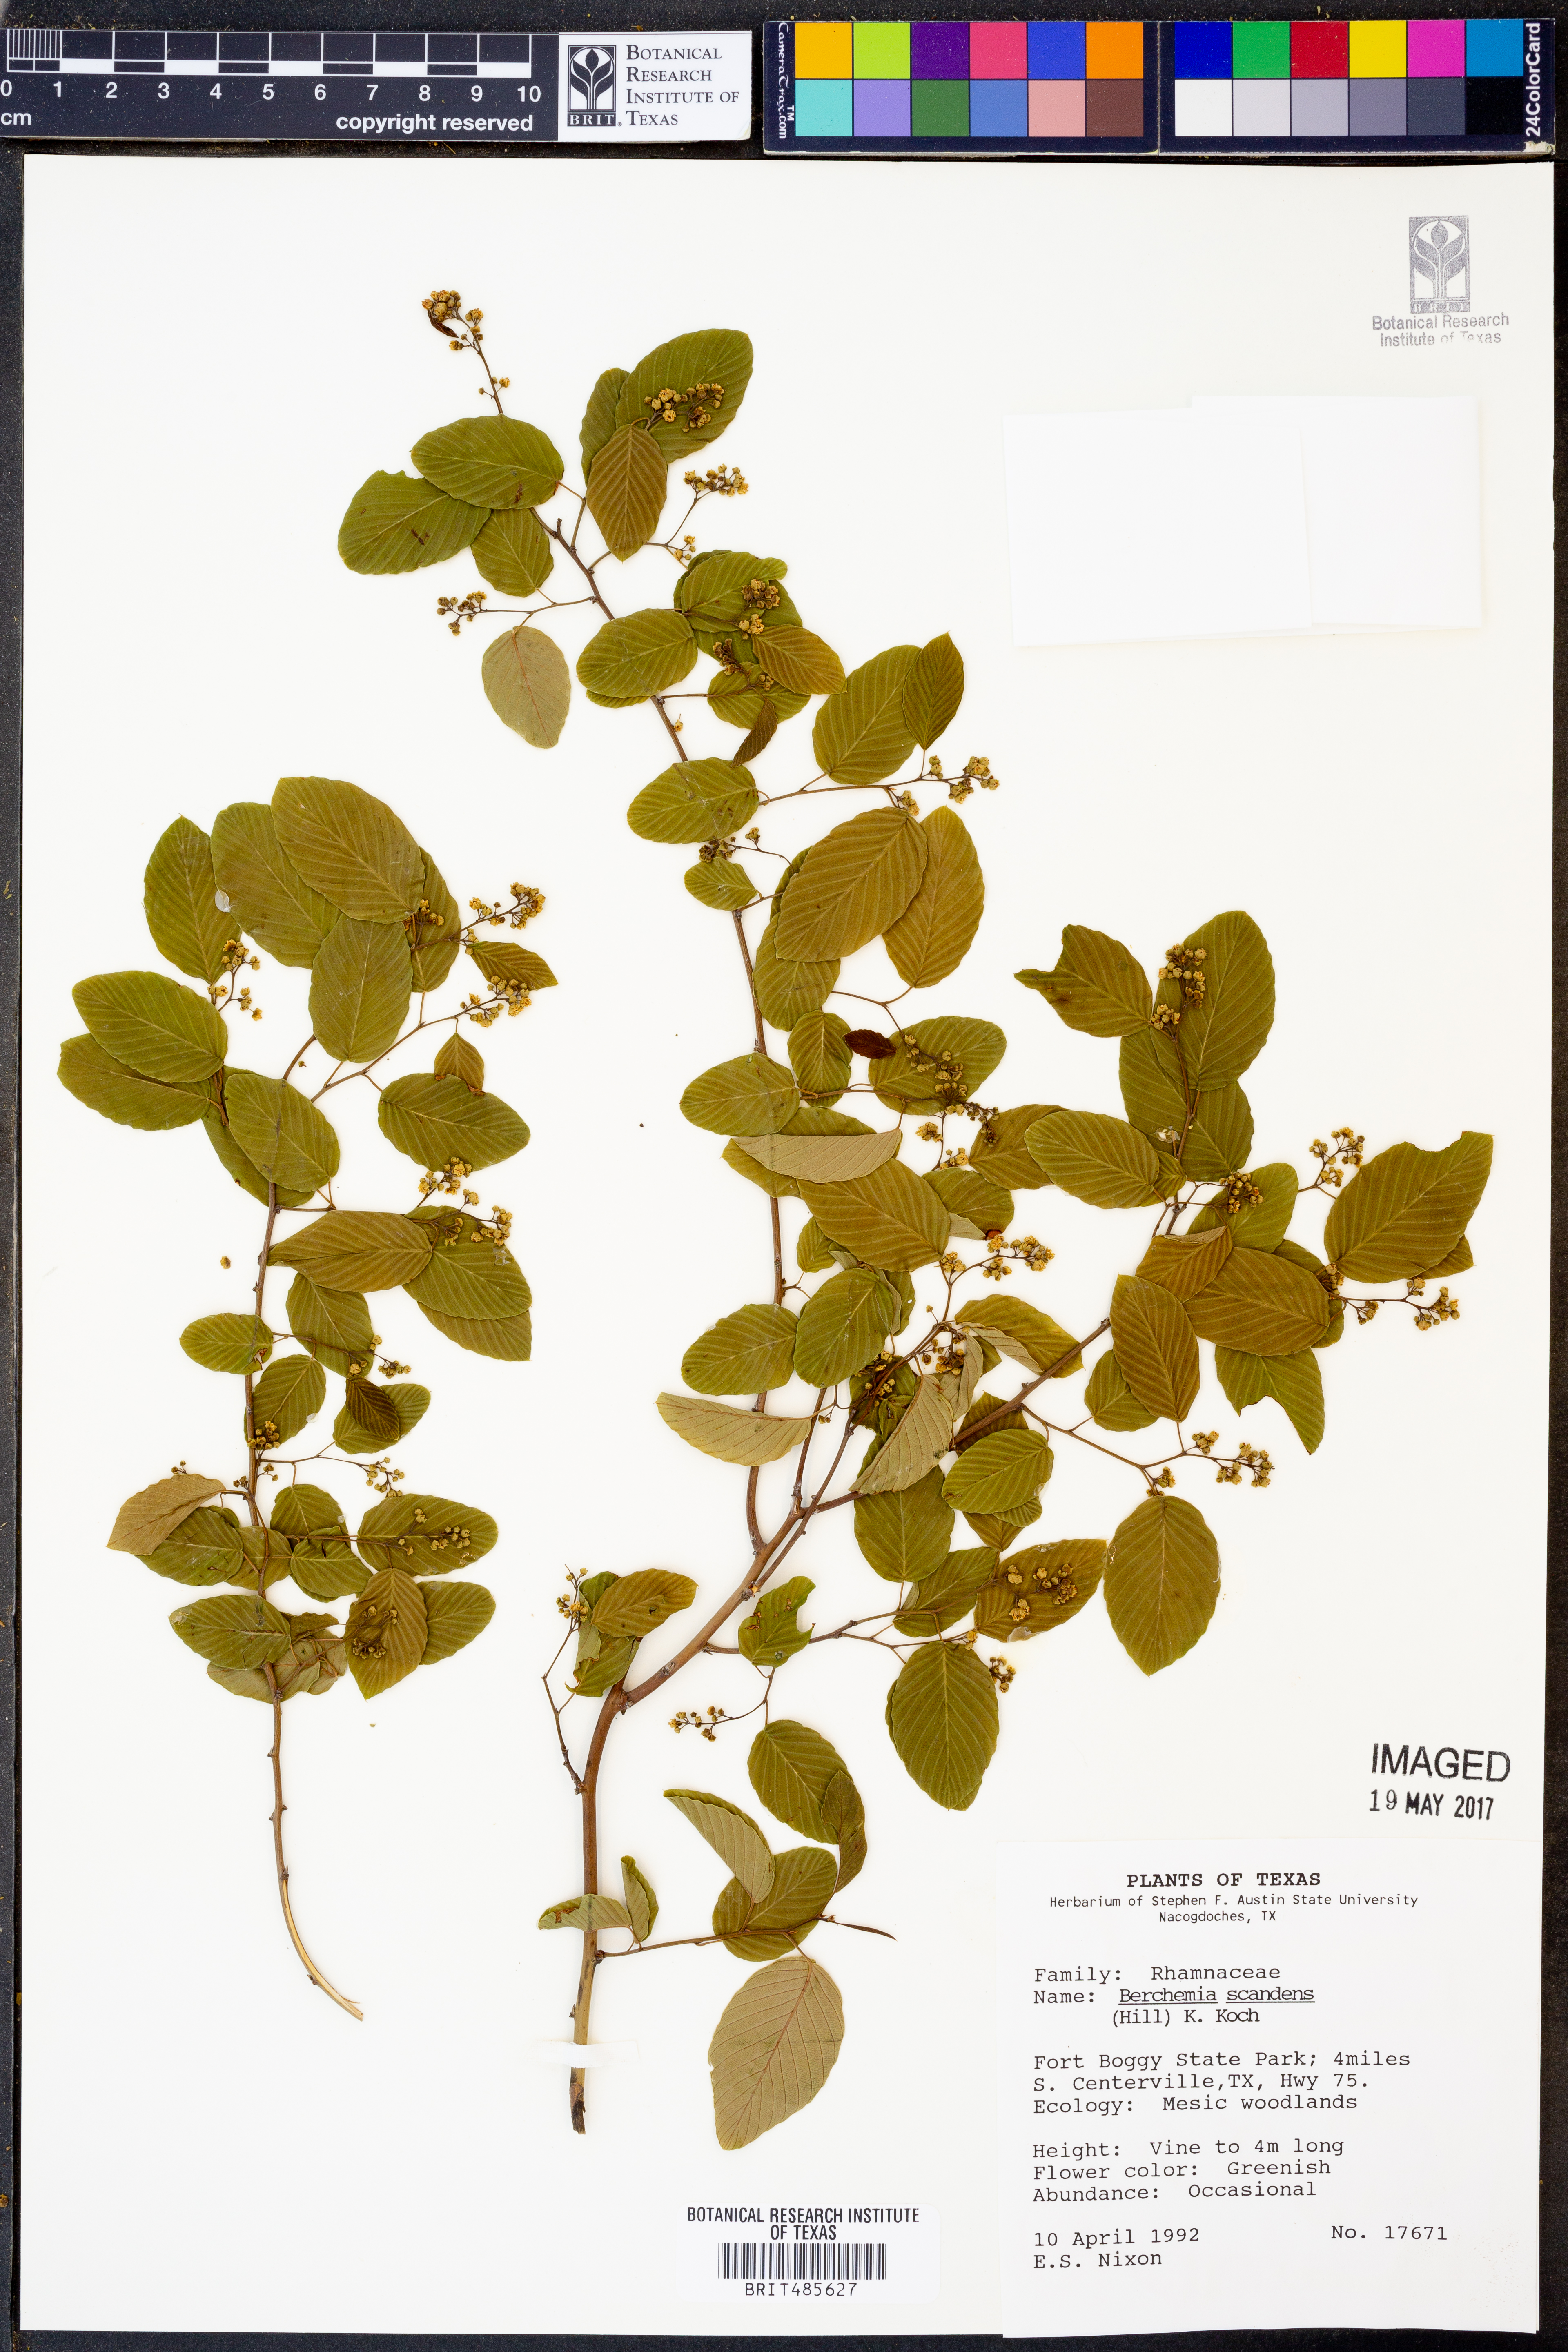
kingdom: Plantae
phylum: Tracheophyta
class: Magnoliopsida
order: Rosales
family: Rhamnaceae
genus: Berchemia
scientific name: Berchemia scandens
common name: Supplejack
